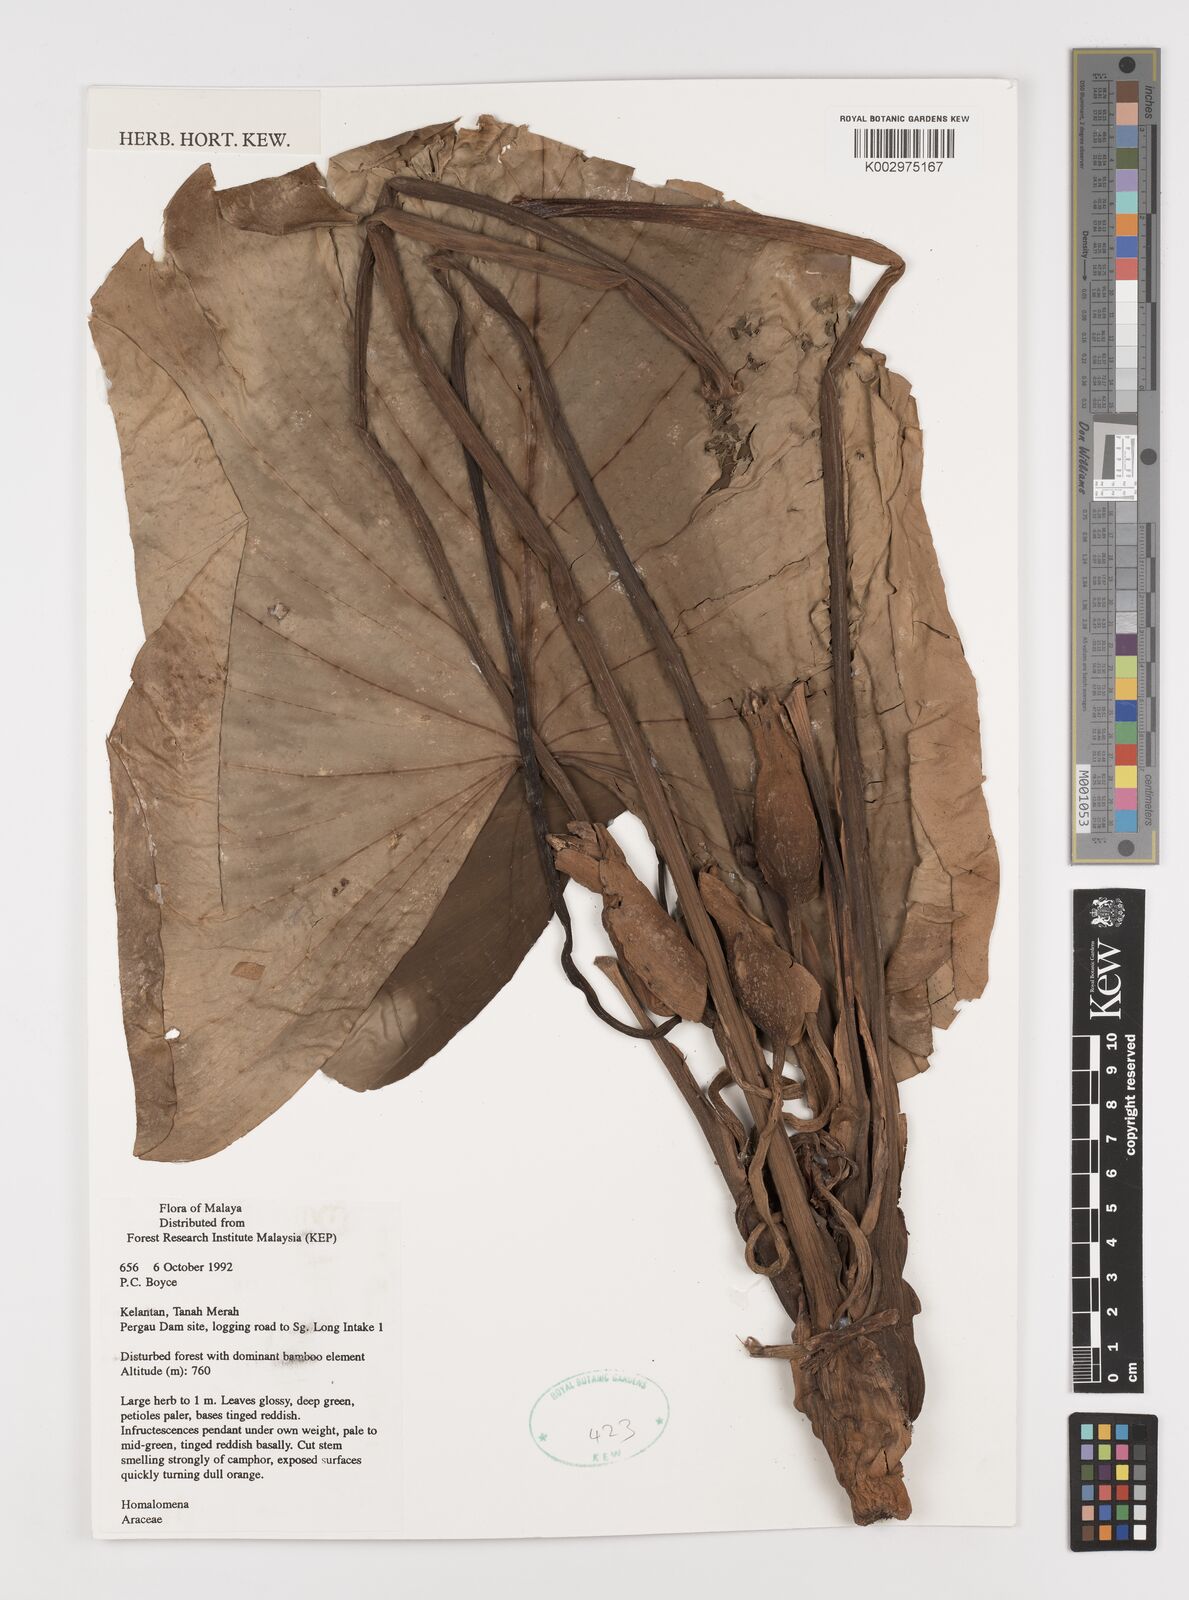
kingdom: Plantae
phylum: Tracheophyta
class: Liliopsida
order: Alismatales
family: Araceae
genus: Homalomena
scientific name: Homalomena
